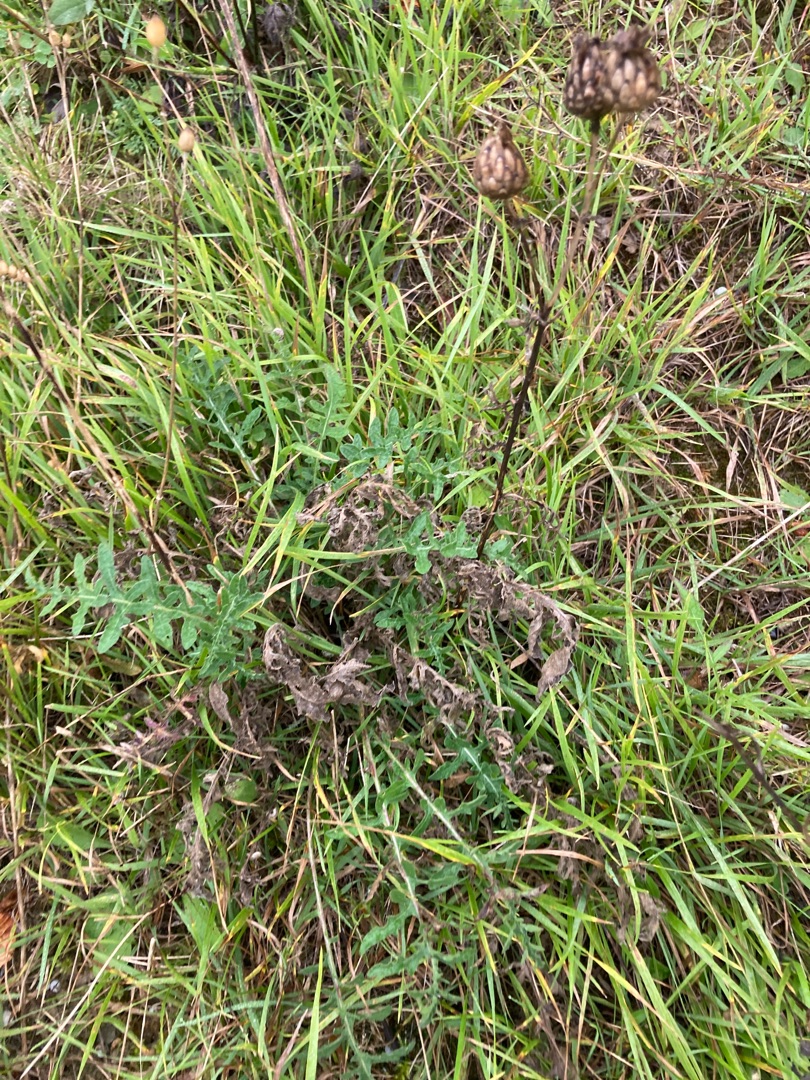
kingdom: Plantae
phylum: Tracheophyta
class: Magnoliopsida
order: Asterales
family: Asteraceae
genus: Centaurea
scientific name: Centaurea scabiosa
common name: Stor knopurt
